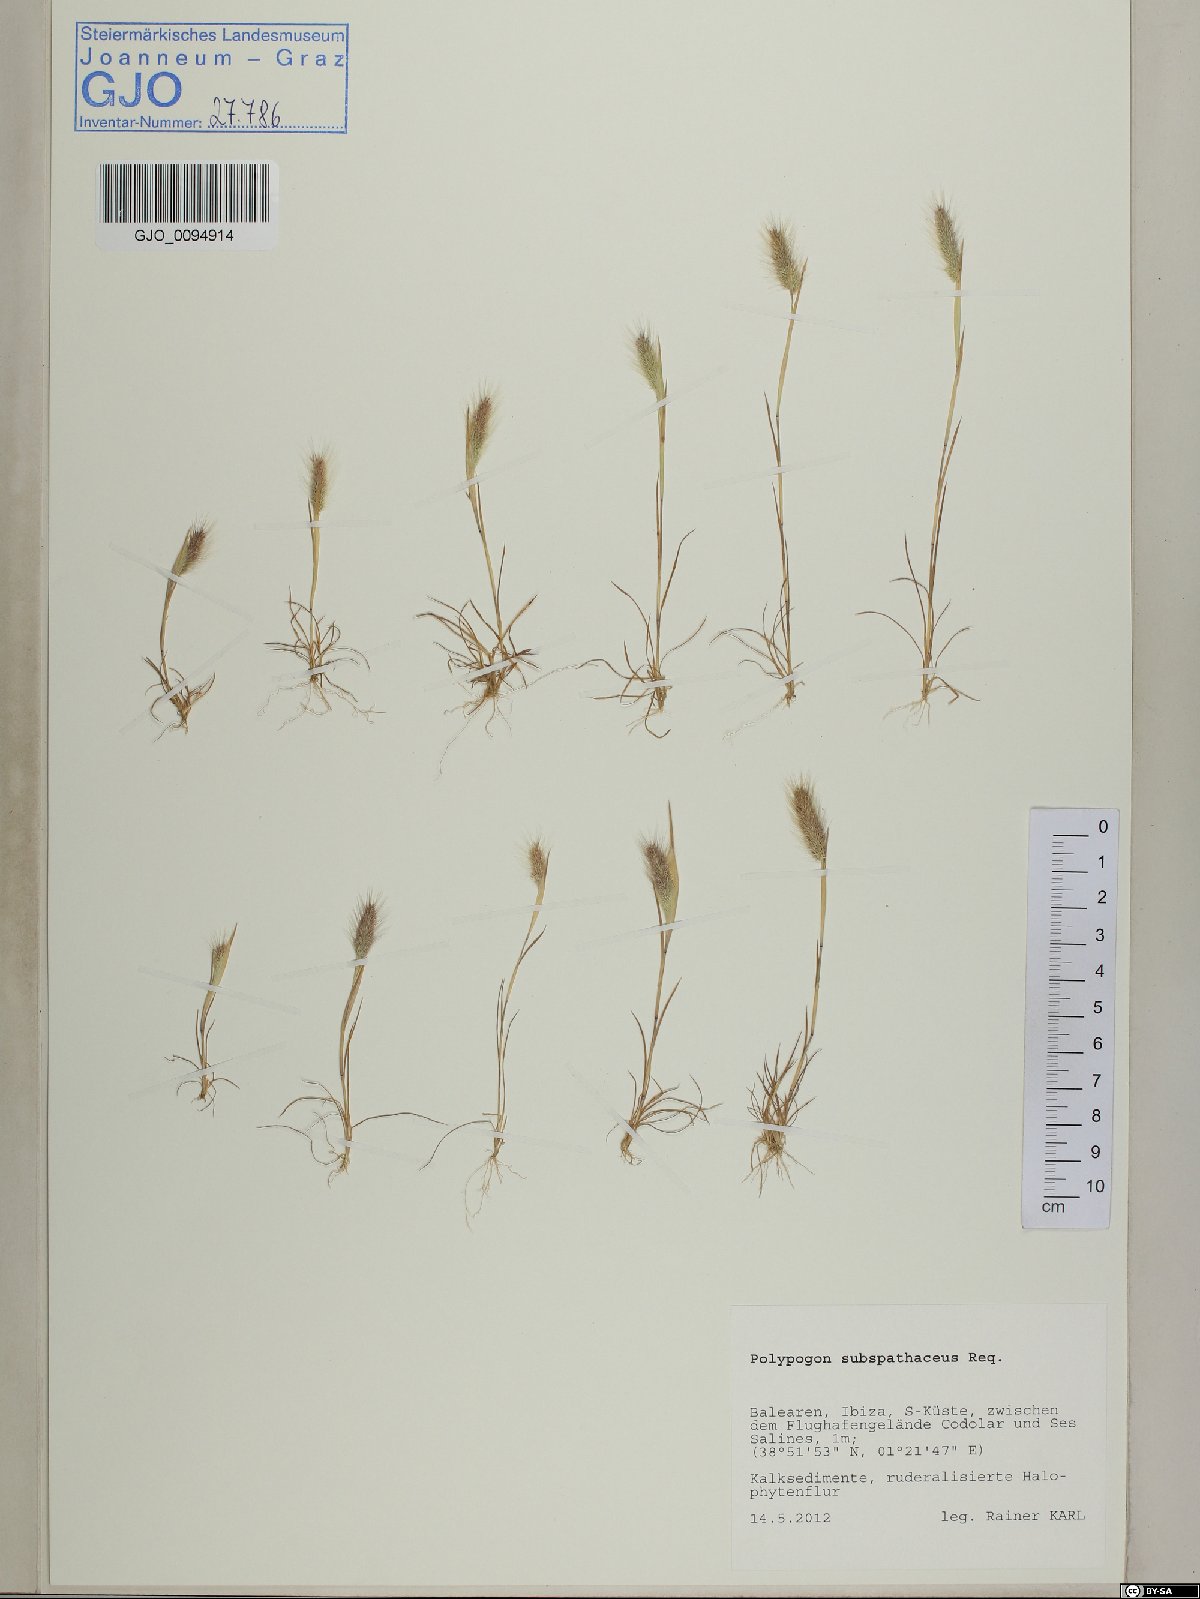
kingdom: Plantae
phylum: Tracheophyta
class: Liliopsida
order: Poales
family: Poaceae
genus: Polypogon
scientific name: Polypogon subspathaceus
